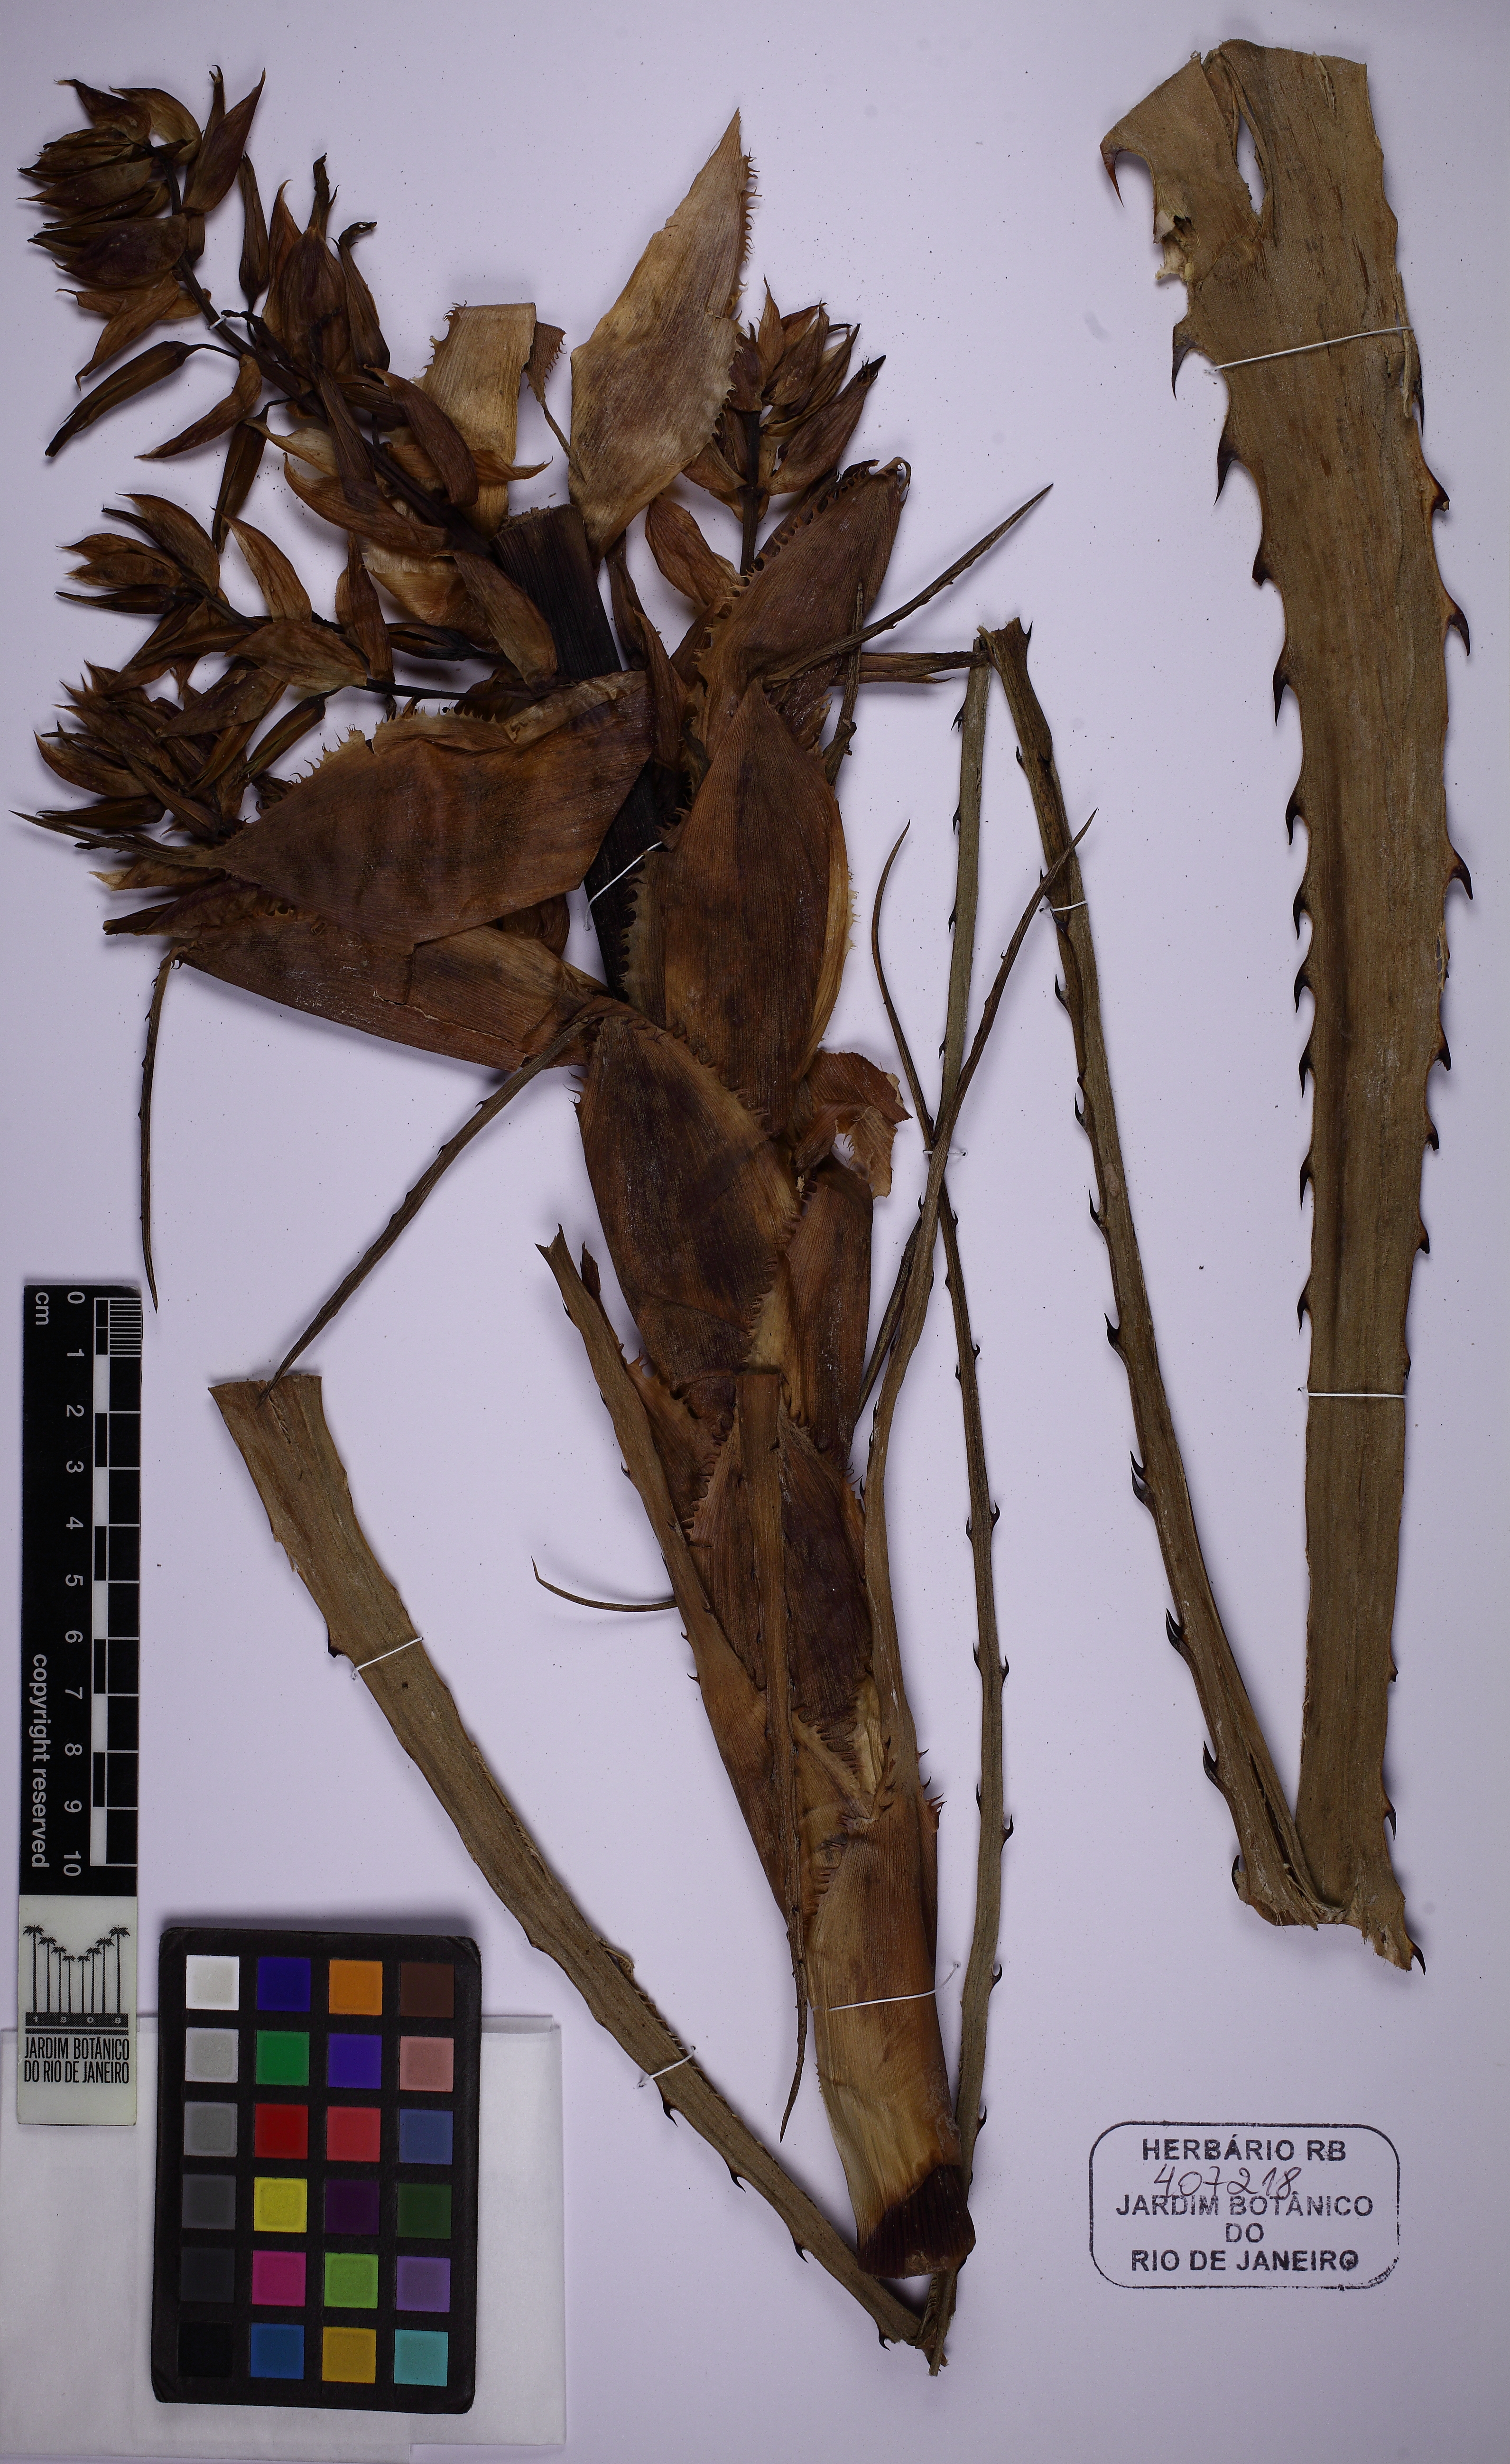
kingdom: Plantae
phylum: Tracheophyta
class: Liliopsida
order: Poales
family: Bromeliaceae
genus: Puya
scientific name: Puya
